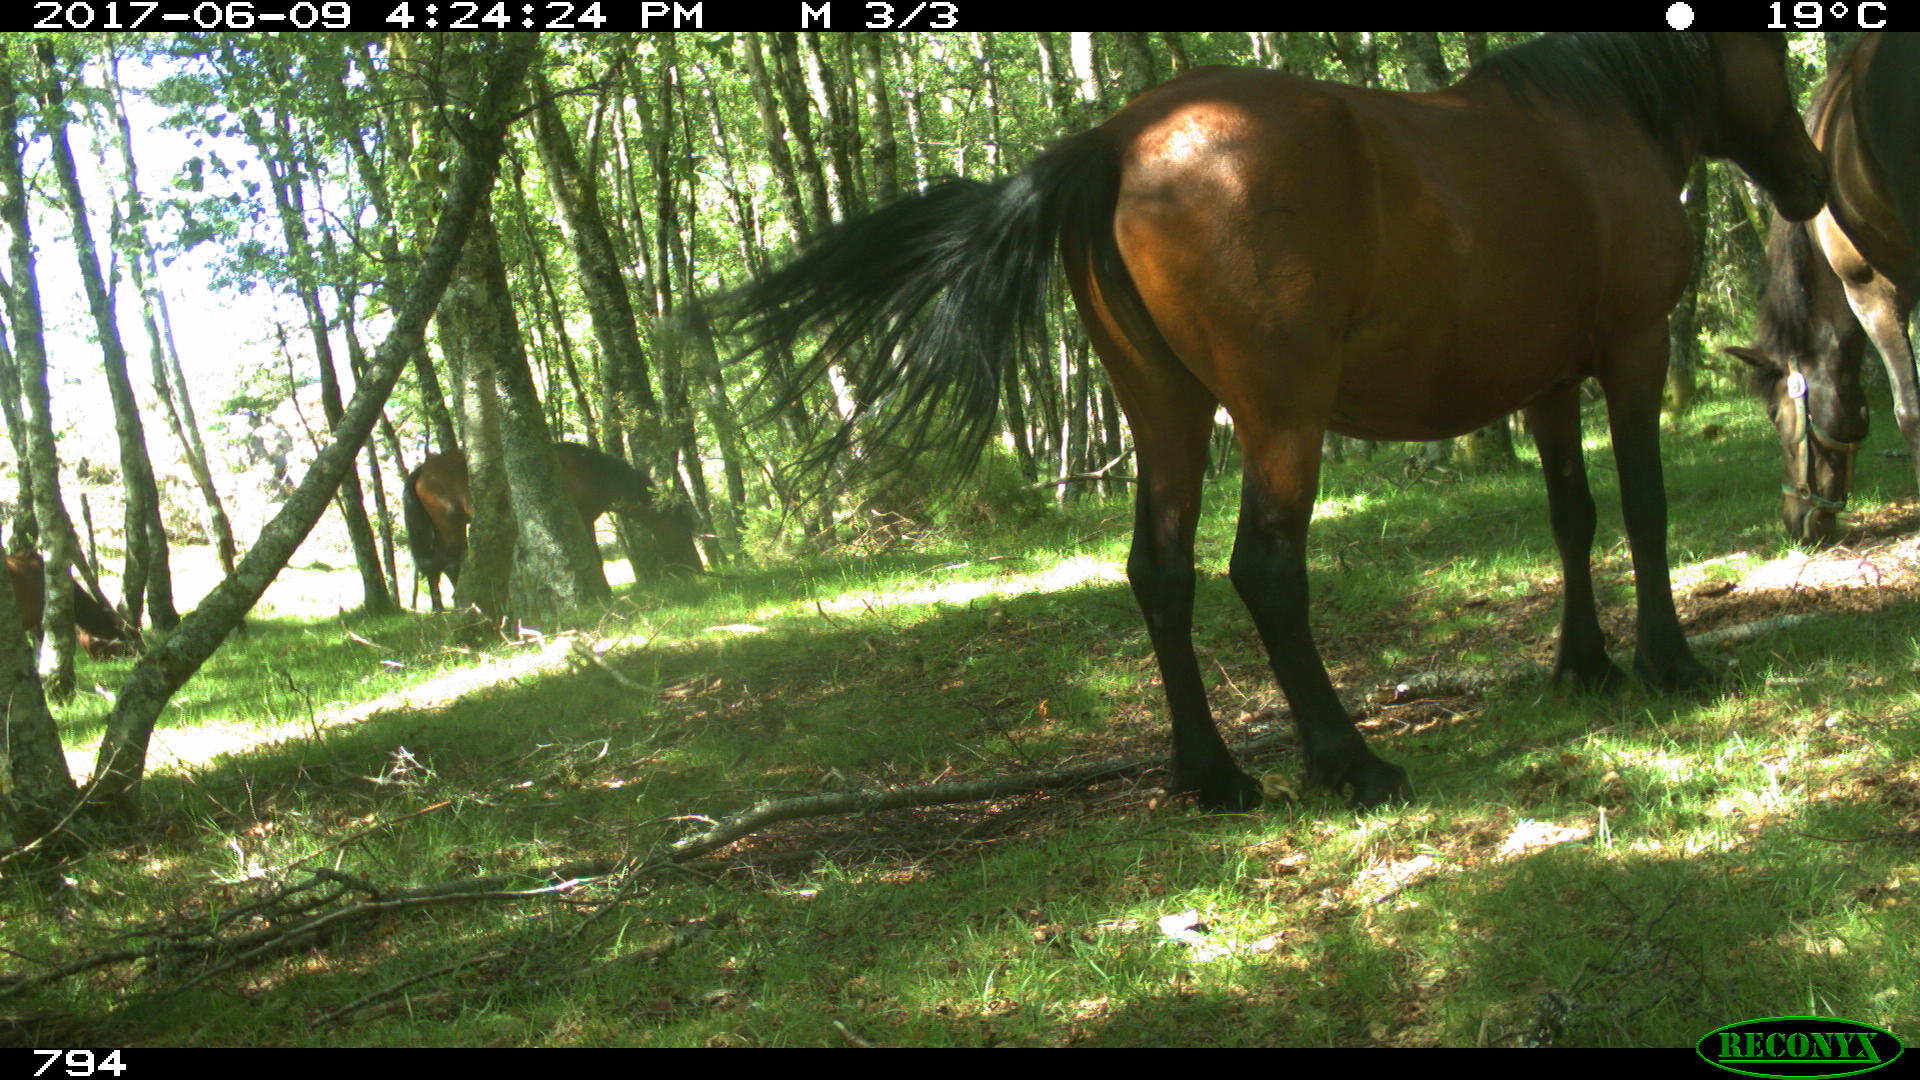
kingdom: Animalia
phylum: Chordata
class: Mammalia
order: Perissodactyla
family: Equidae
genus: Equus
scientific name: Equus caballus
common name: Horse
